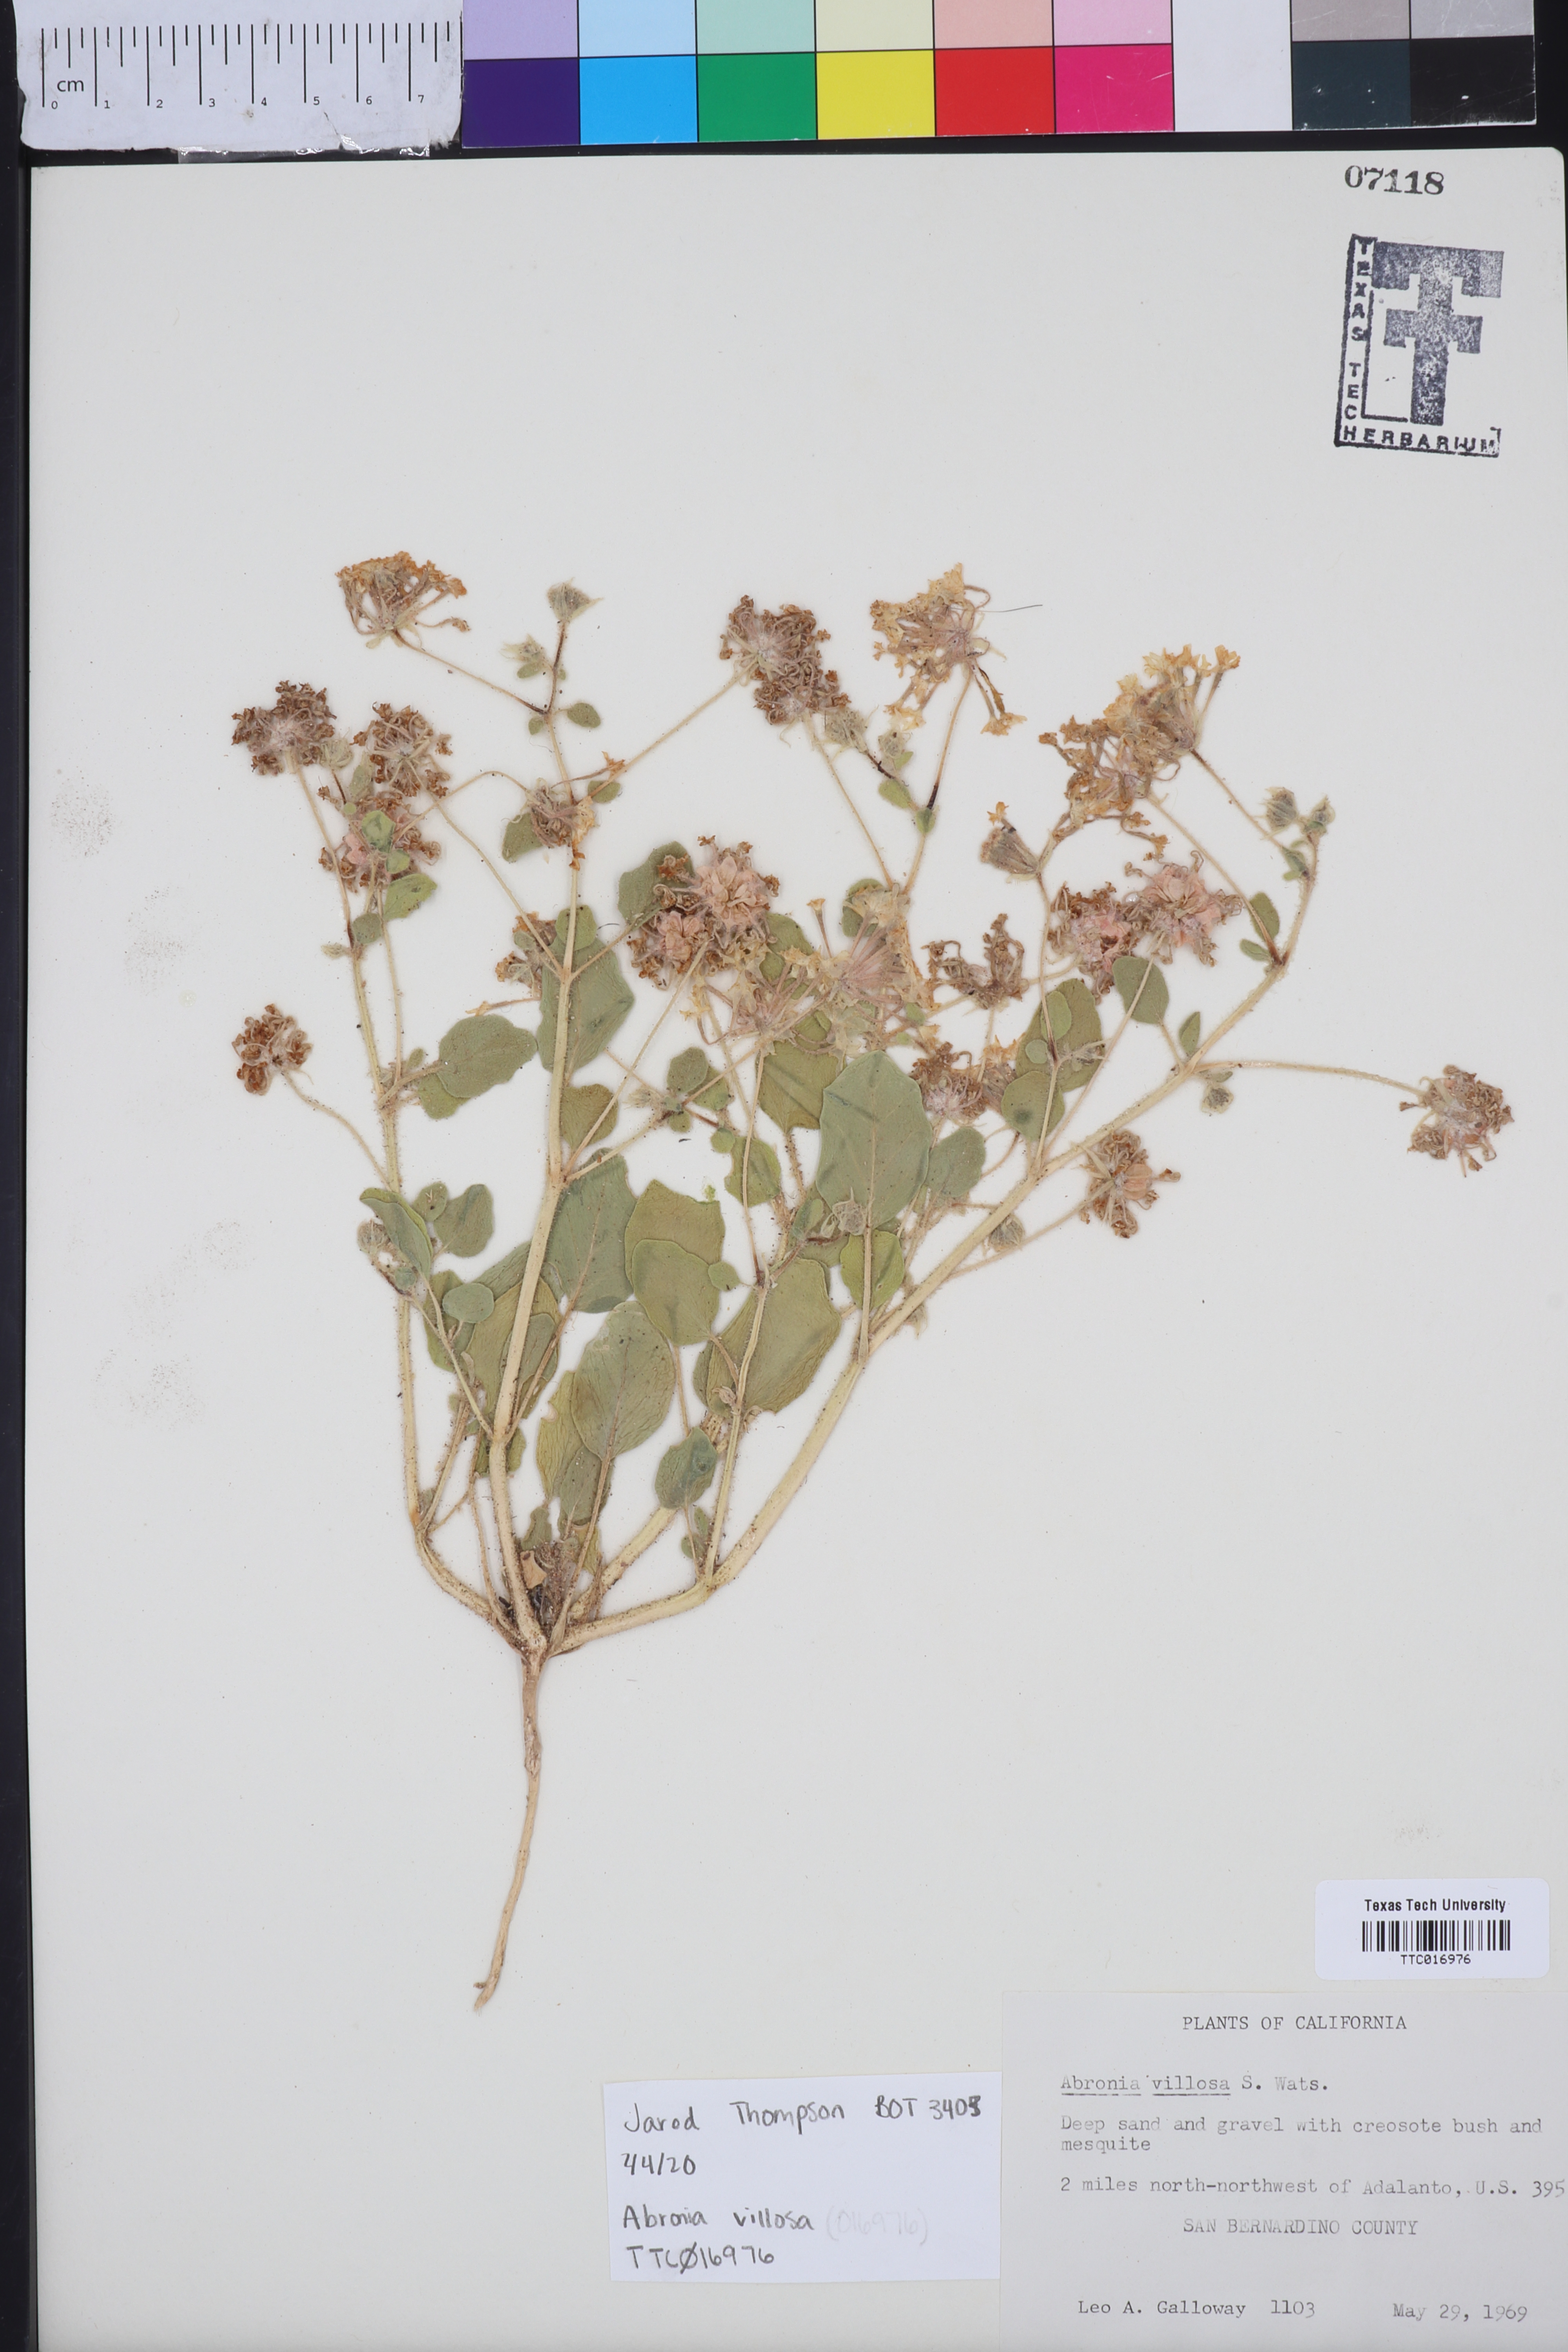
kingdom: Plantae
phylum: Tracheophyta
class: Magnoliopsida
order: Caryophyllales
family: Nyctaginaceae
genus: Abronia
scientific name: Abronia villosa
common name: Desert sand-verbena
